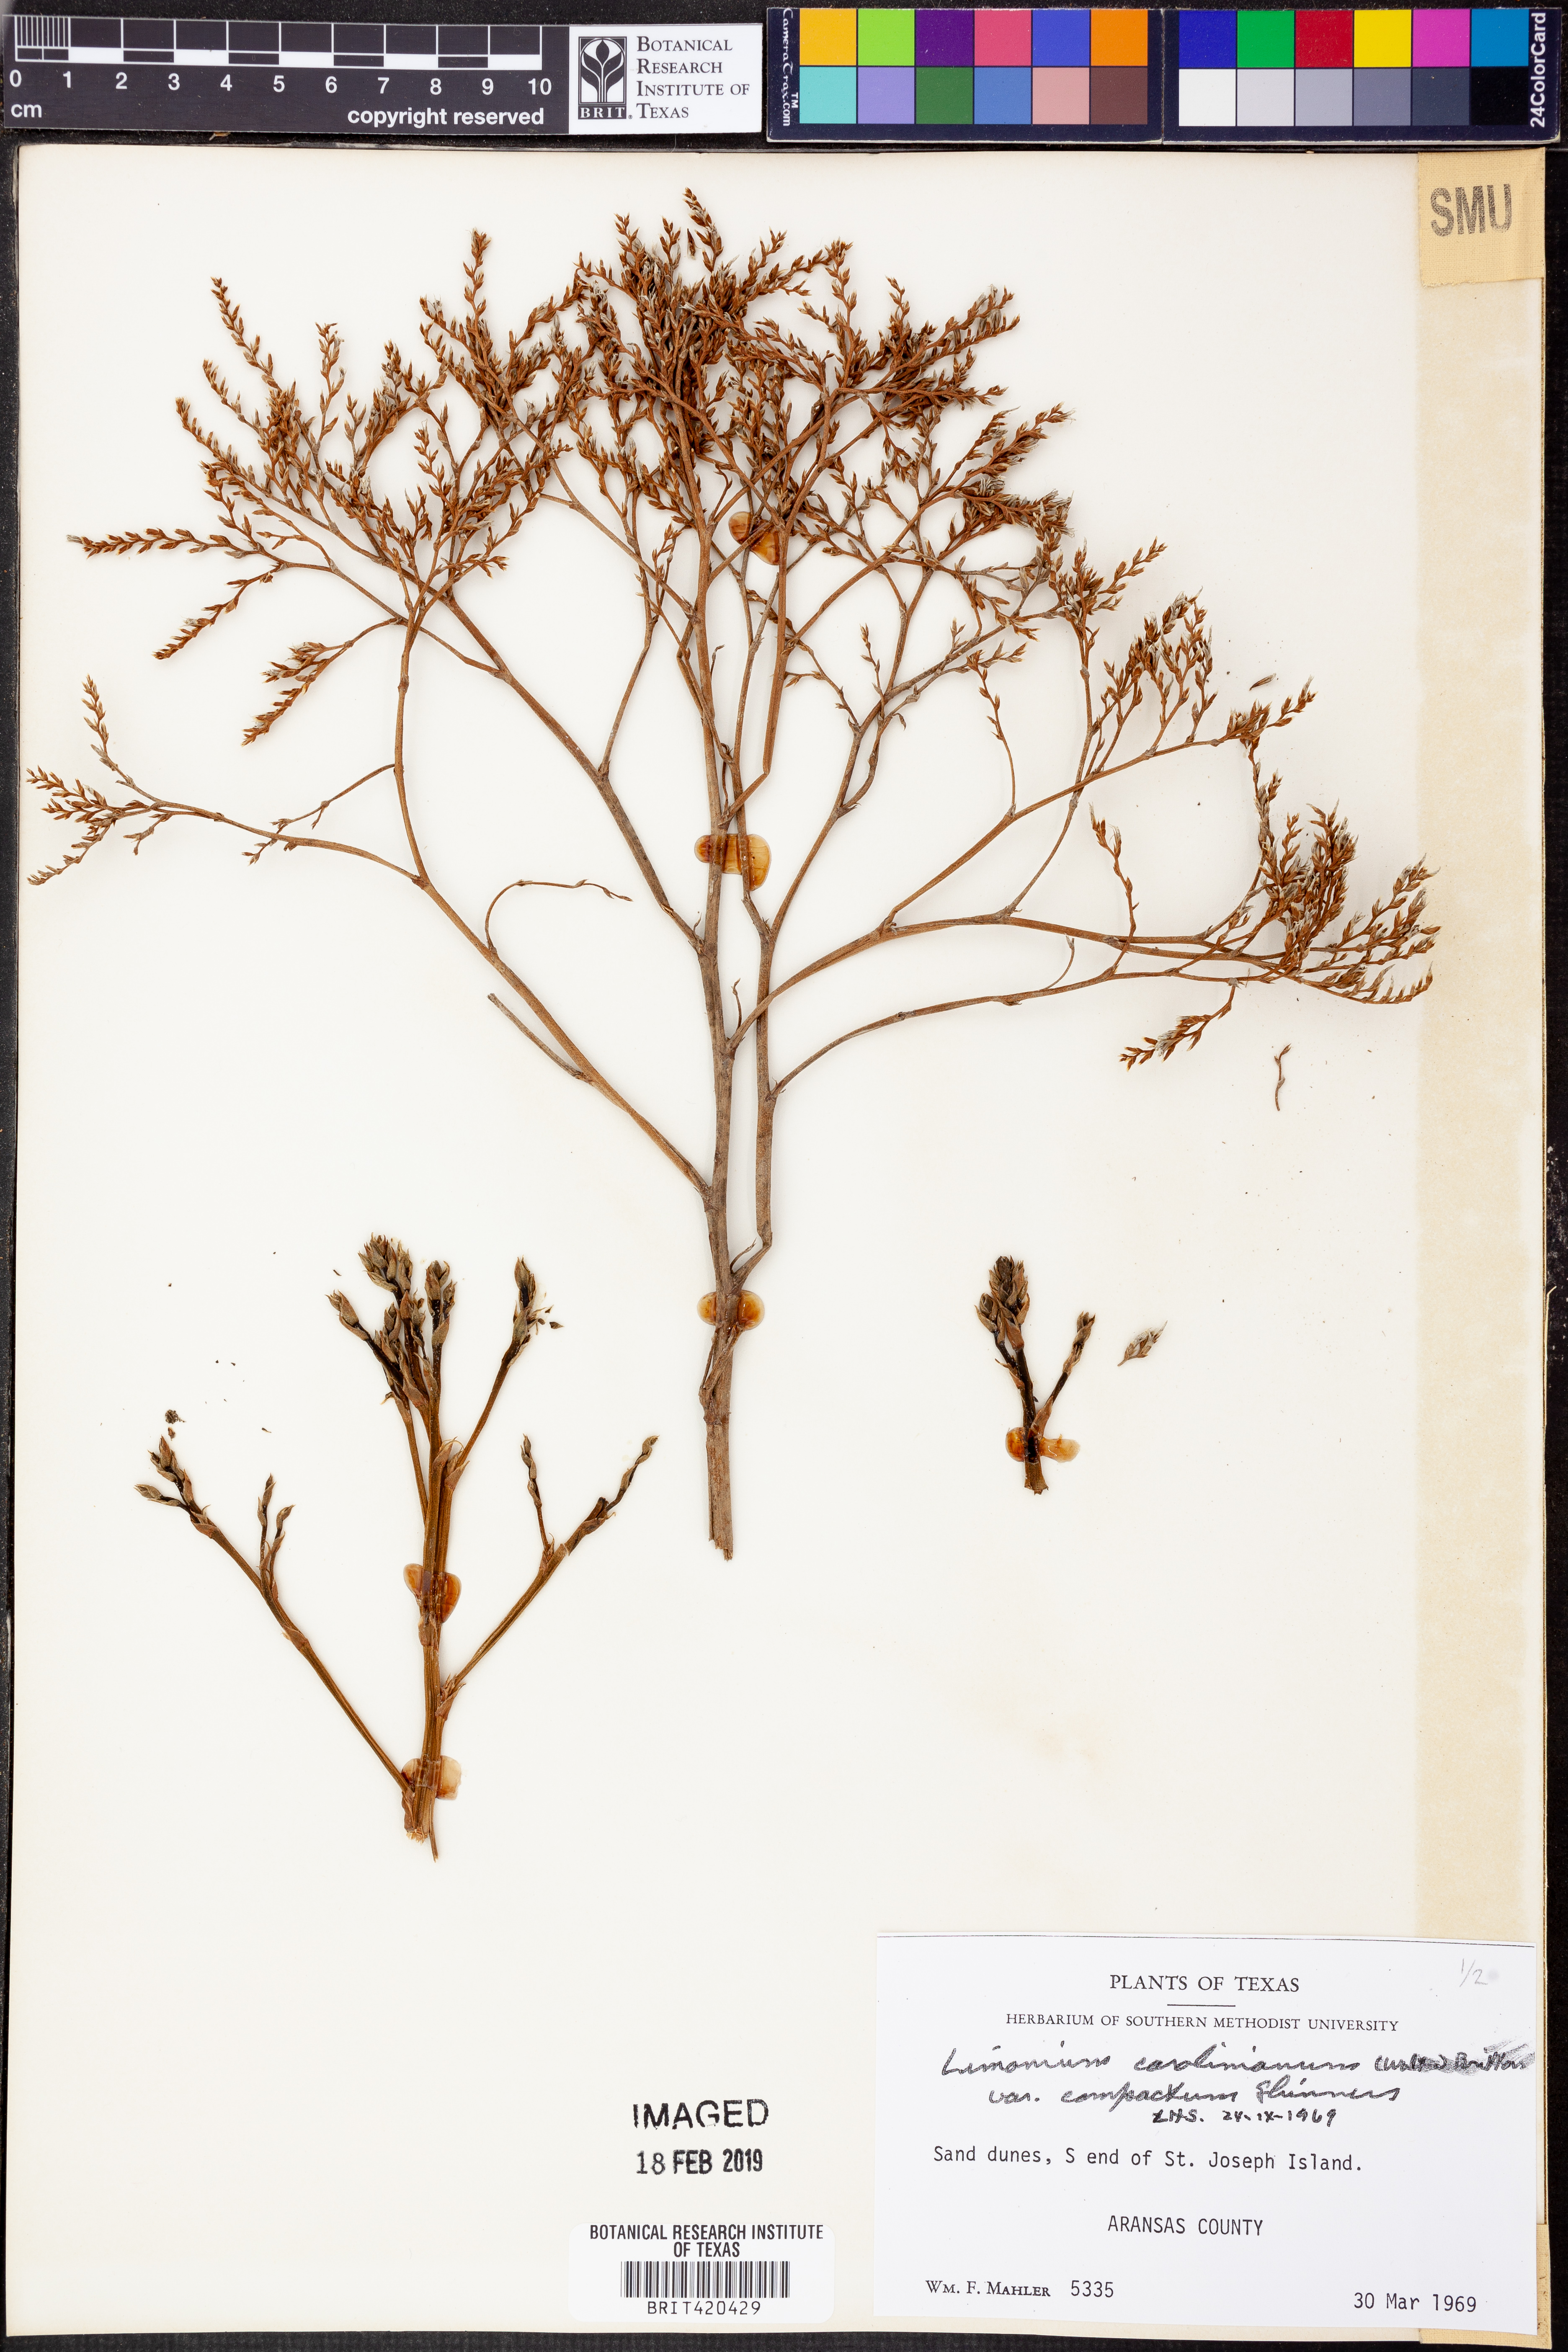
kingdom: Plantae
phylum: Tracheophyta
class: Magnoliopsida
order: Caryophyllales
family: Plumbaginaceae
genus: Limonium
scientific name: Limonium carolinianum
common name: Carolina sea lavender
